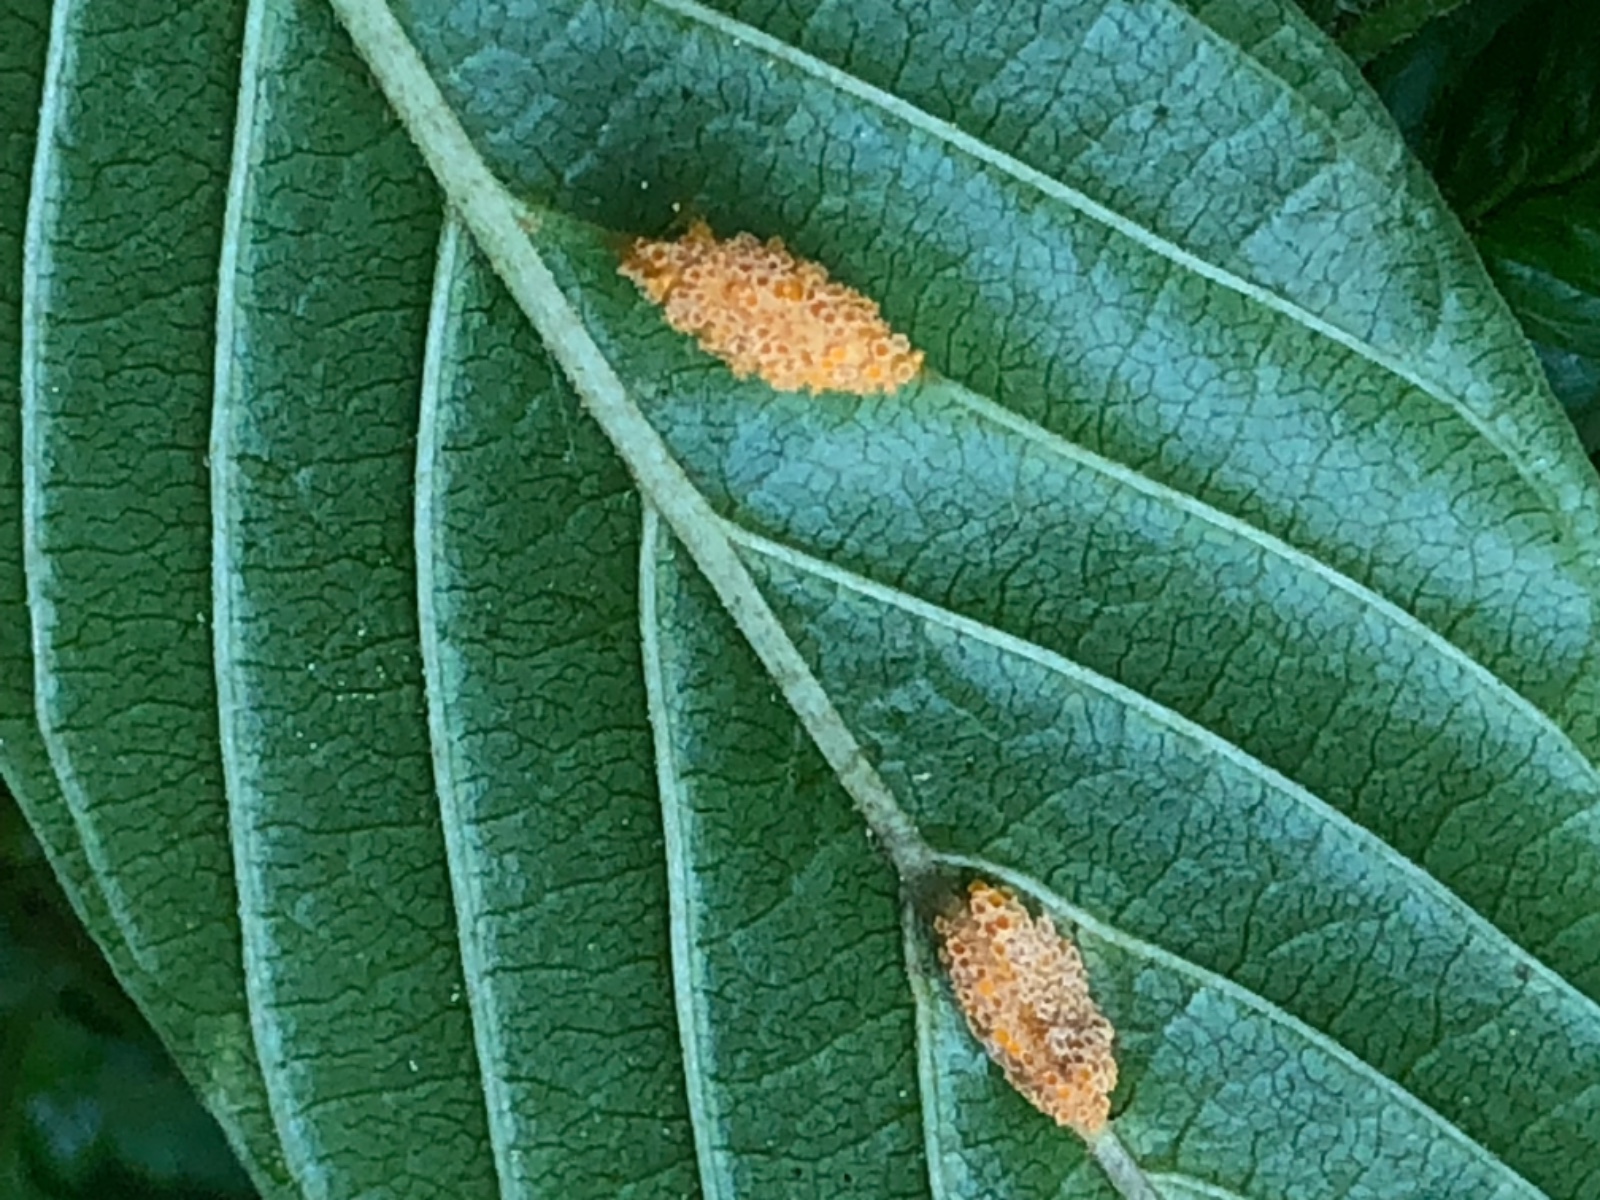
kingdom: Fungi
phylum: Basidiomycota
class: Pucciniomycetes
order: Pucciniales
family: Pucciniaceae
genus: Puccinia
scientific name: Puccinia coronata
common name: Crown rust
